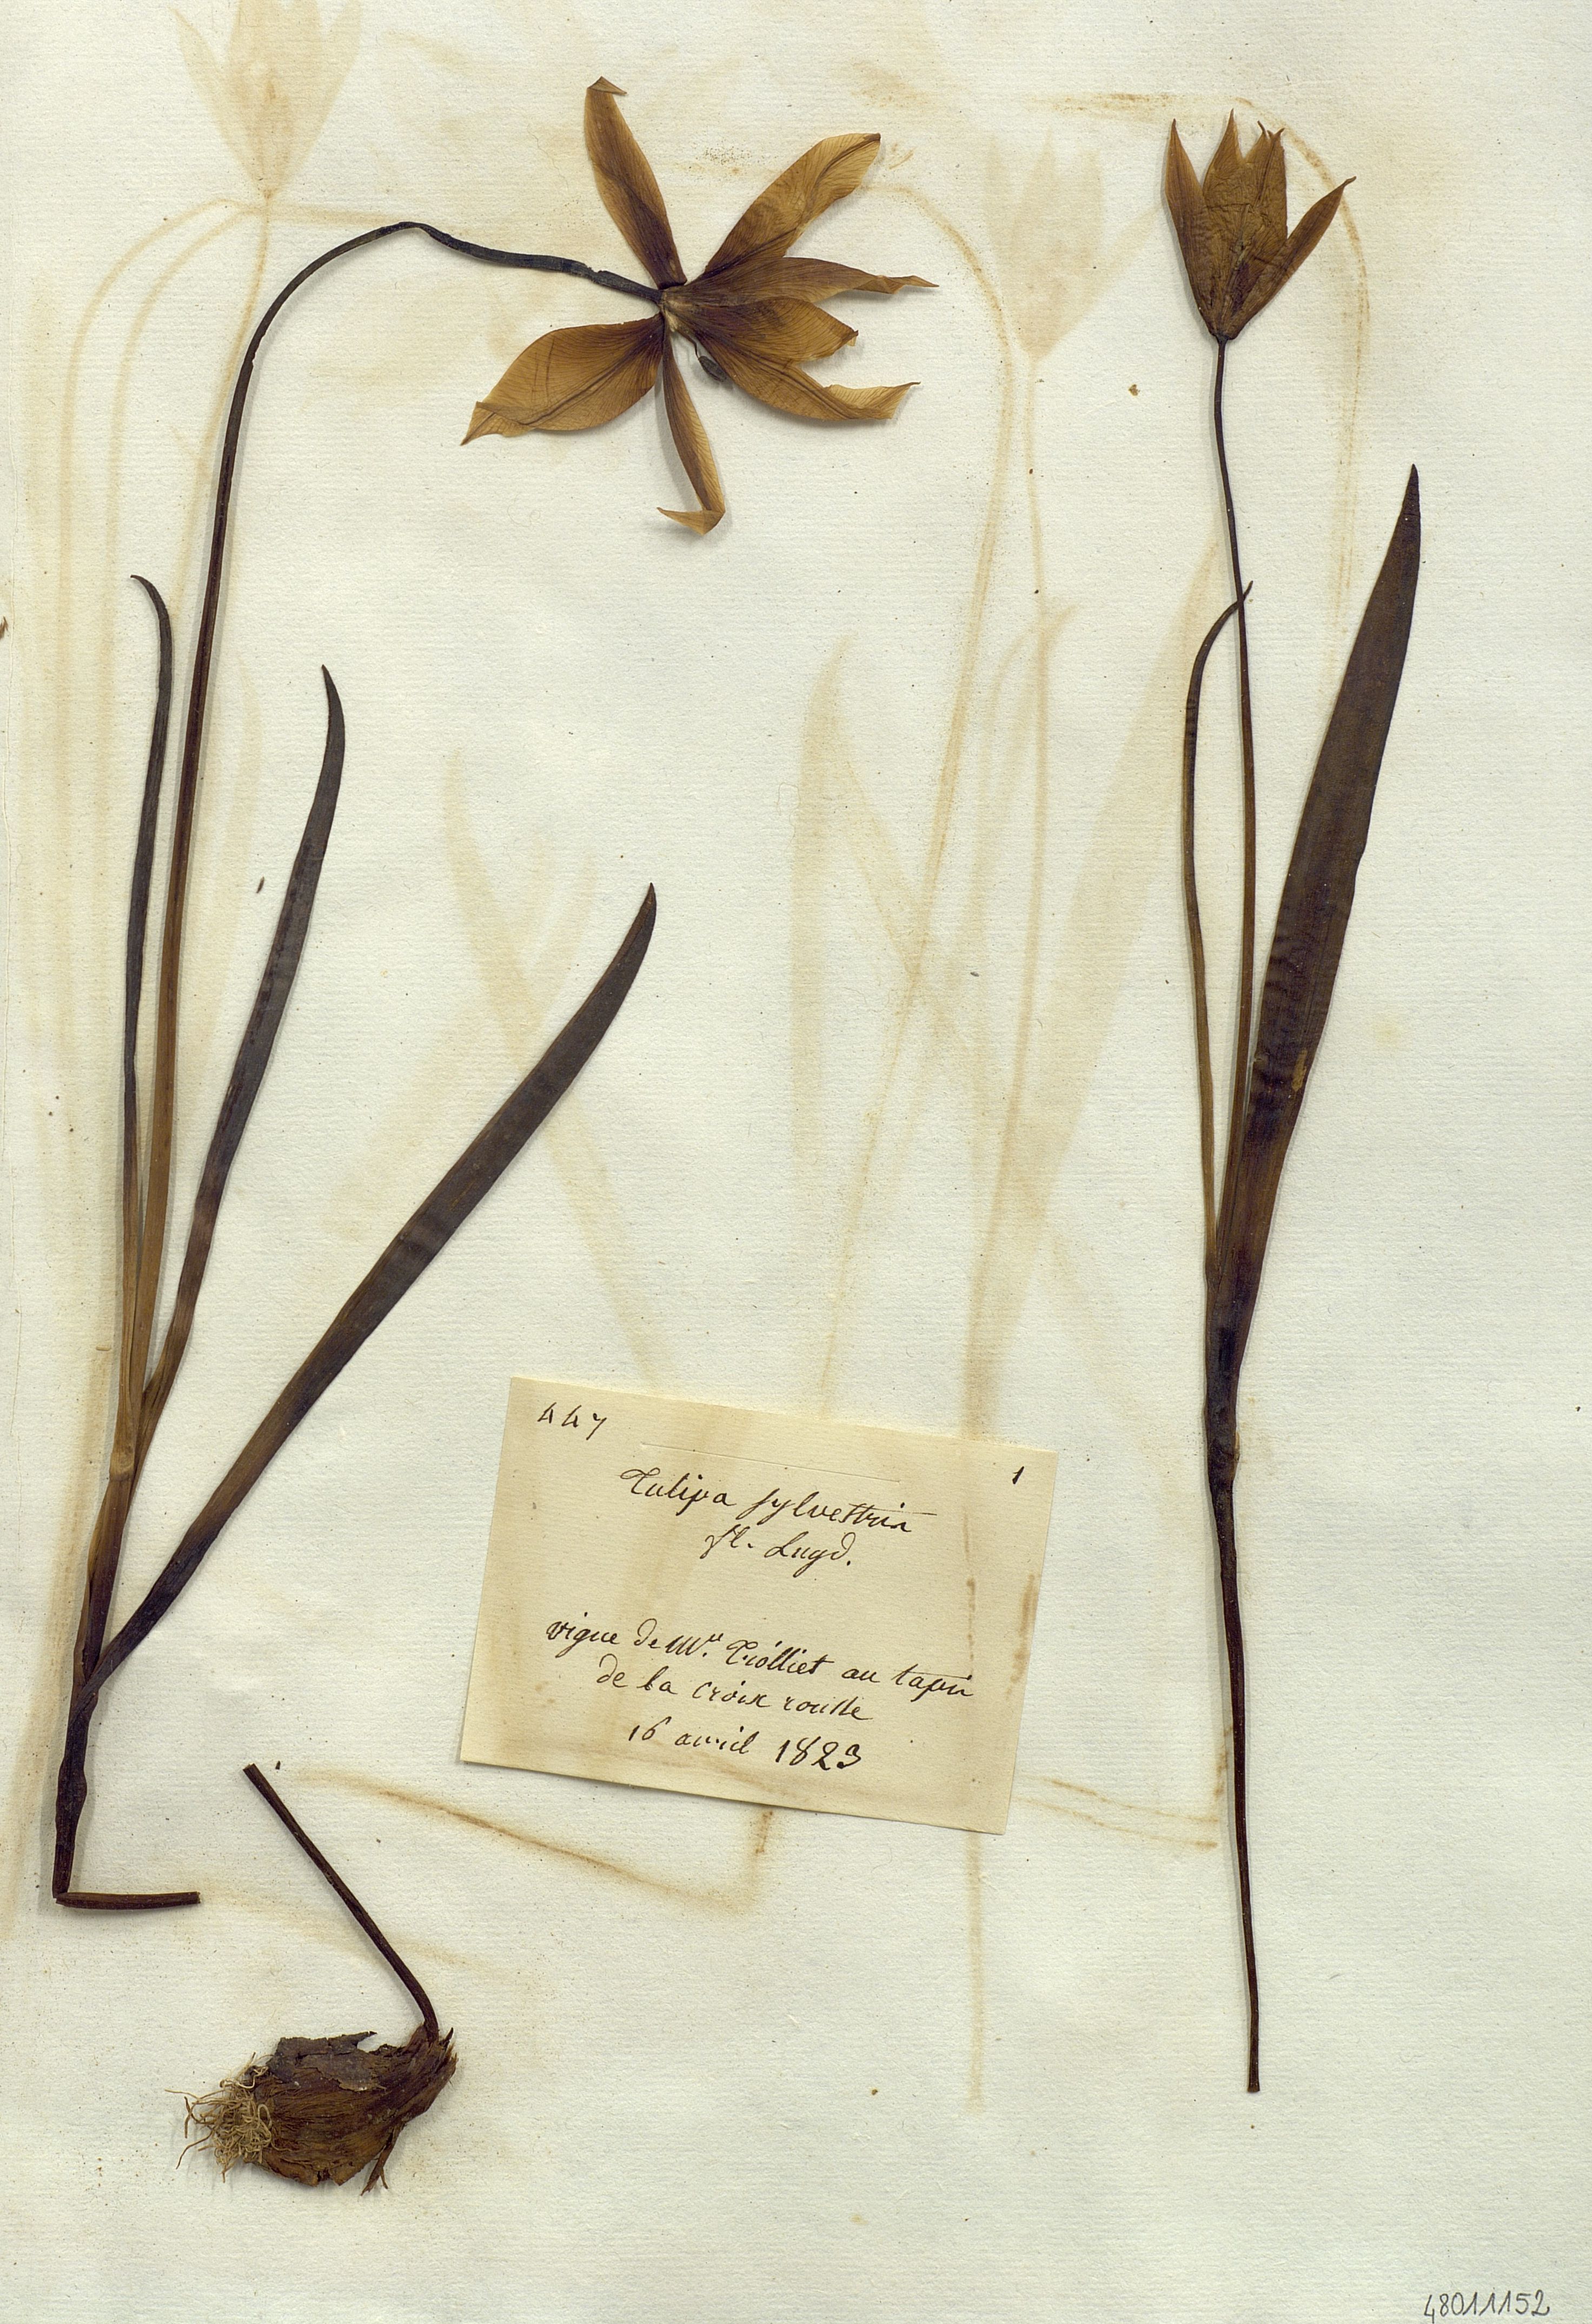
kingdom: Plantae
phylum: Tracheophyta
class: Liliopsida
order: Liliales
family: Liliaceae
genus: Tulipa
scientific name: Tulipa sylvestris
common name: Wild tulip
